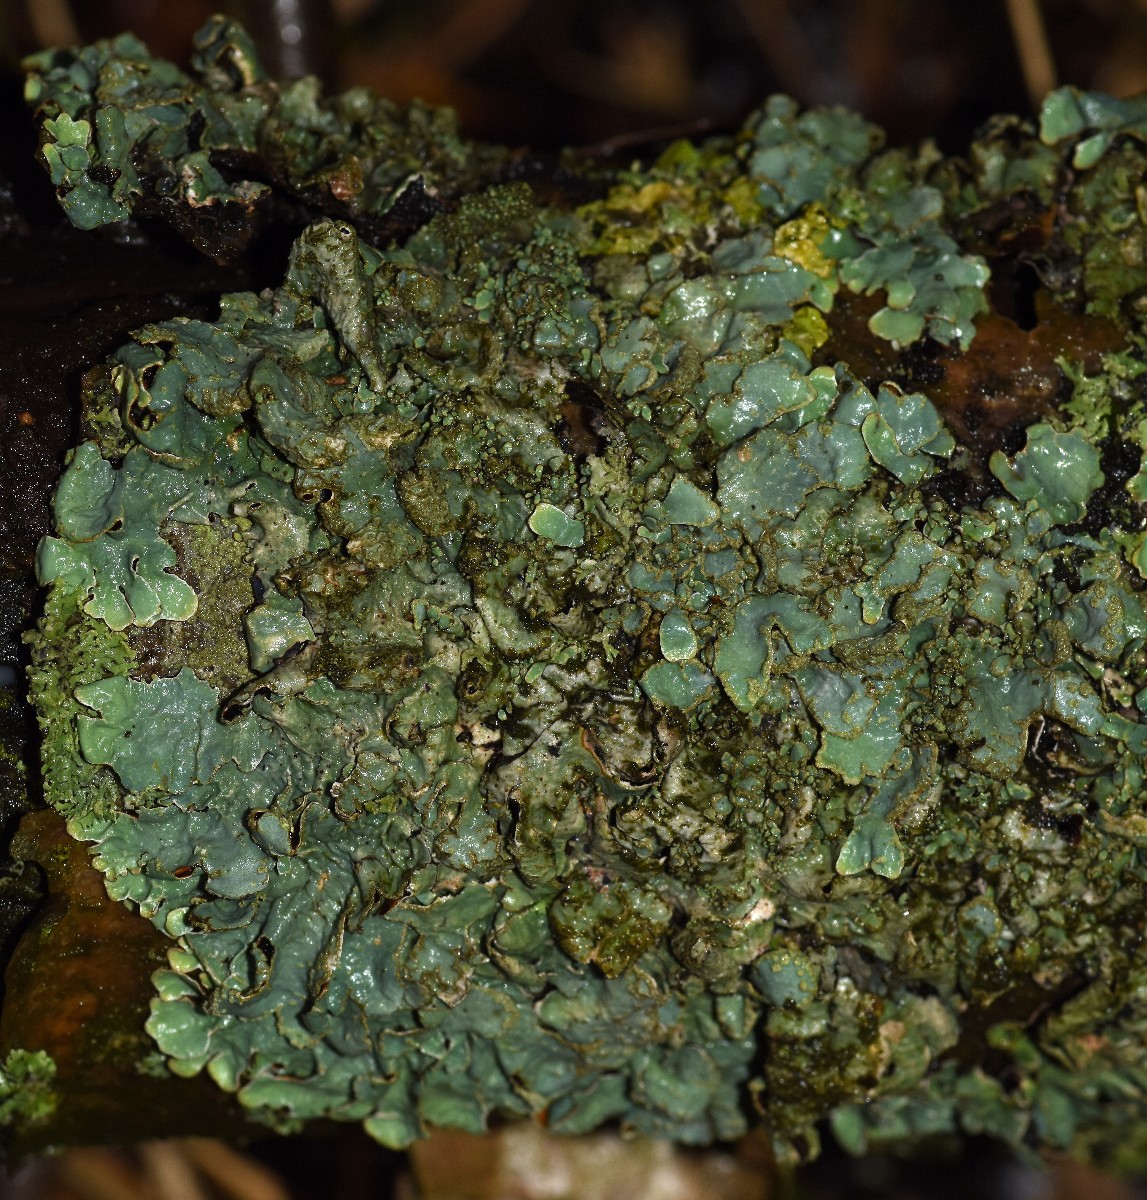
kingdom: Fungi
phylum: Ascomycota
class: Lecanoromycetes
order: Lecanorales
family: Parmeliaceae
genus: Parmelia
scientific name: Parmelia sulcata
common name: rynket skållav
